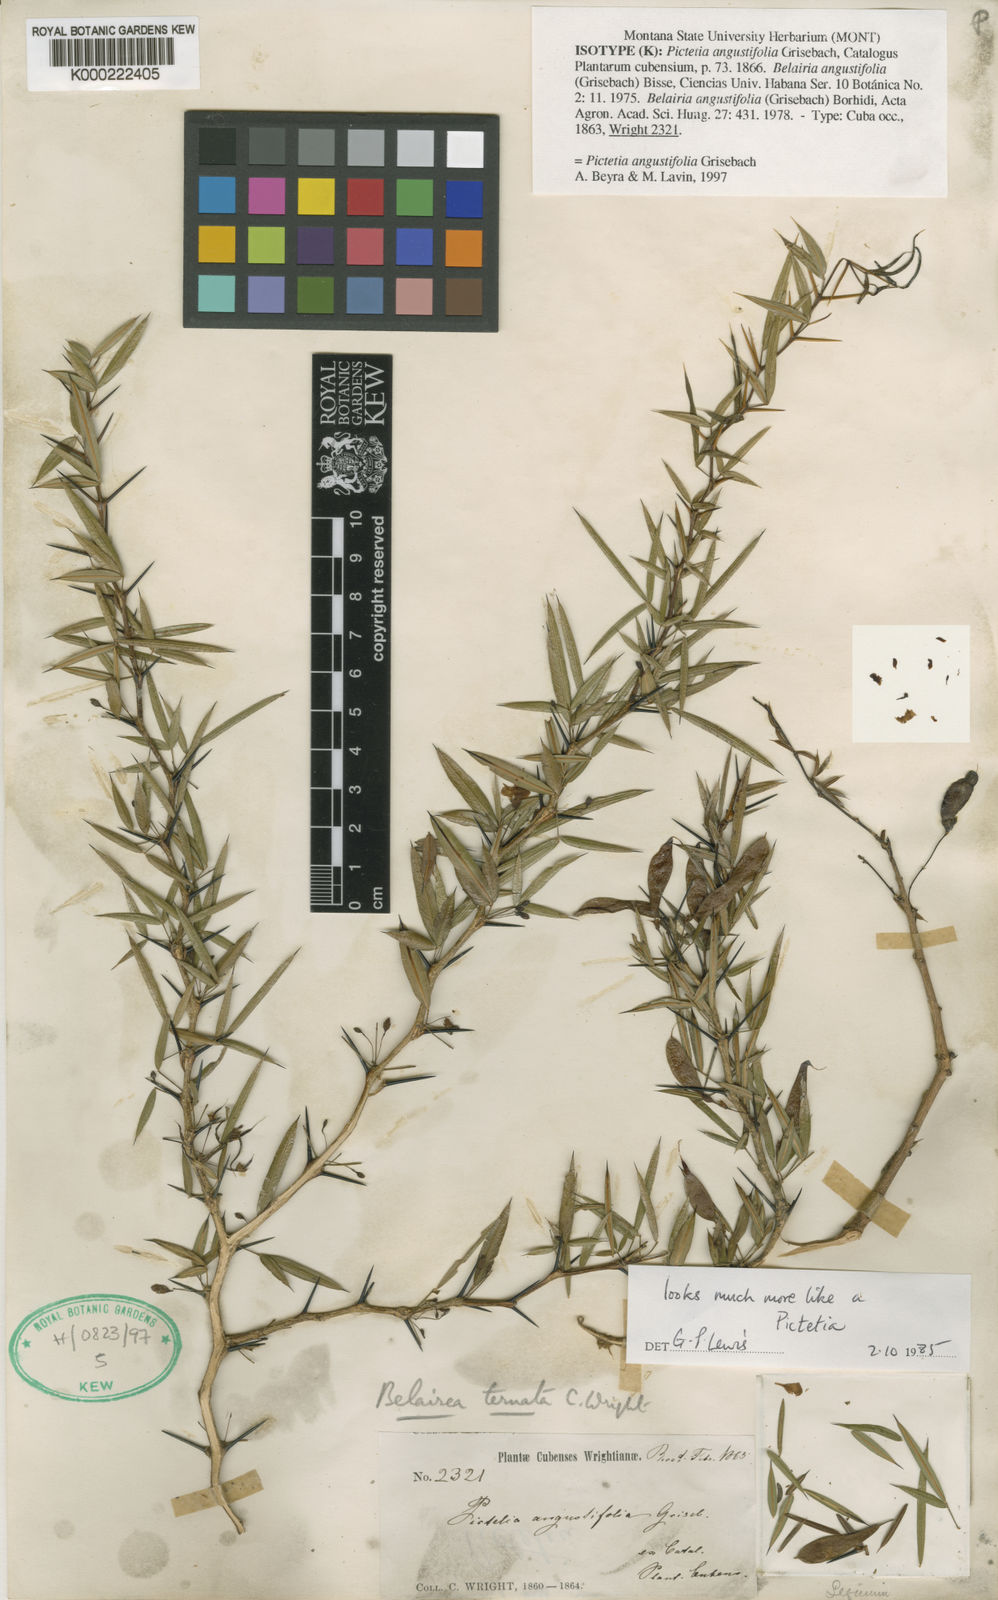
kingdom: Plantae
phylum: Tracheophyta
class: Magnoliopsida
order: Fabales
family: Fabaceae
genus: Pictetia
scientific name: Pictetia angustifolia
